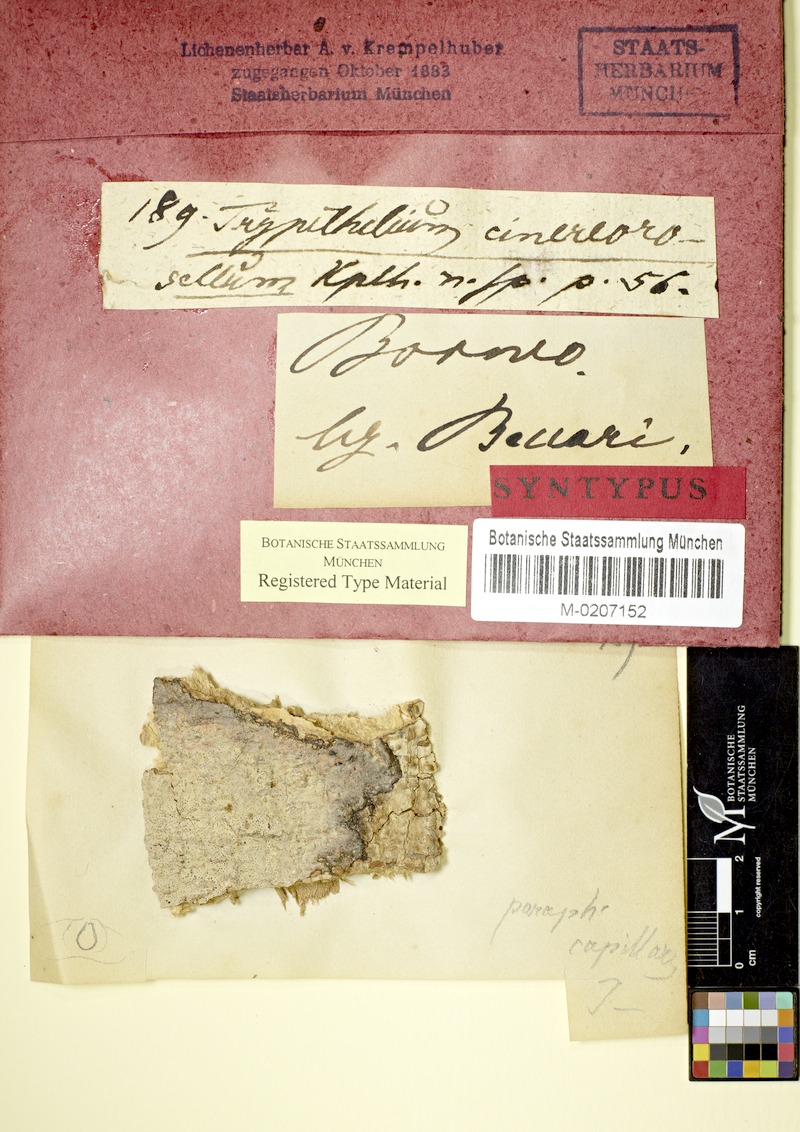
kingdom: Fungi
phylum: Ascomycota
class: Dothideomycetes
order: Trypetheliales
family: Trypetheliaceae
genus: Astrothelium
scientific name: Astrothelium cinereorosellum
